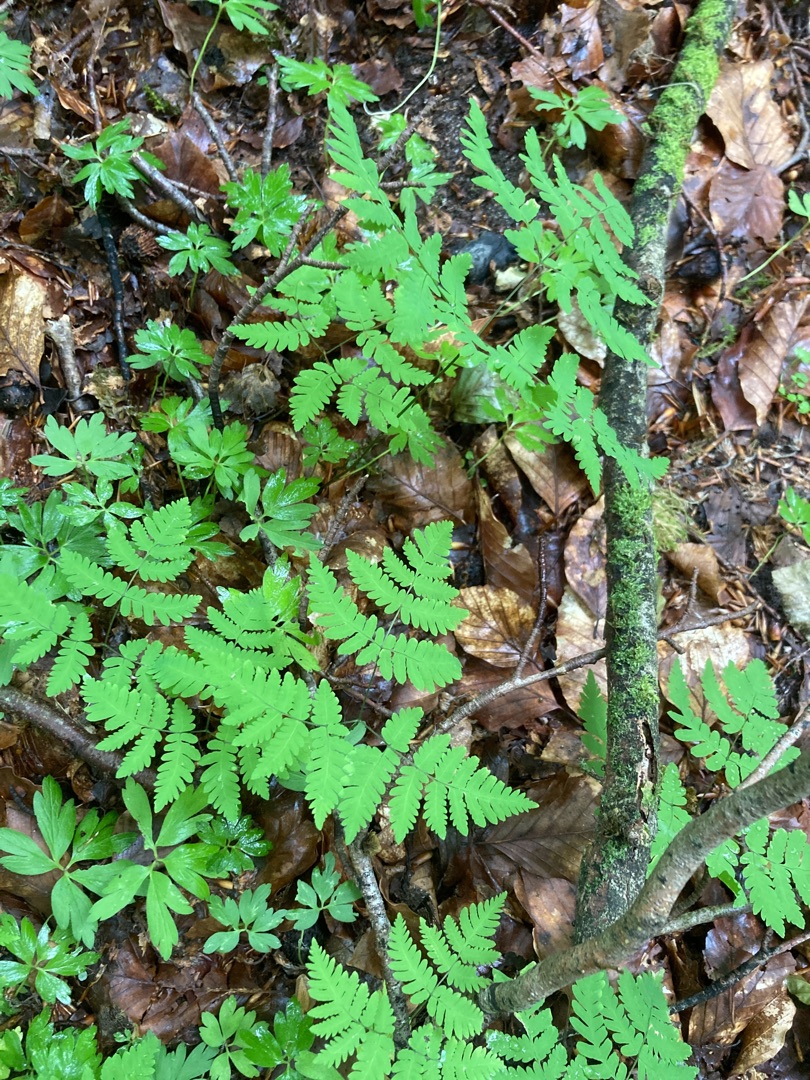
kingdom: Plantae
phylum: Tracheophyta
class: Polypodiopsida
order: Polypodiales
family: Cystopteridaceae
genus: Gymnocarpium
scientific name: Gymnocarpium dryopteris
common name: Tredelt egebregne
